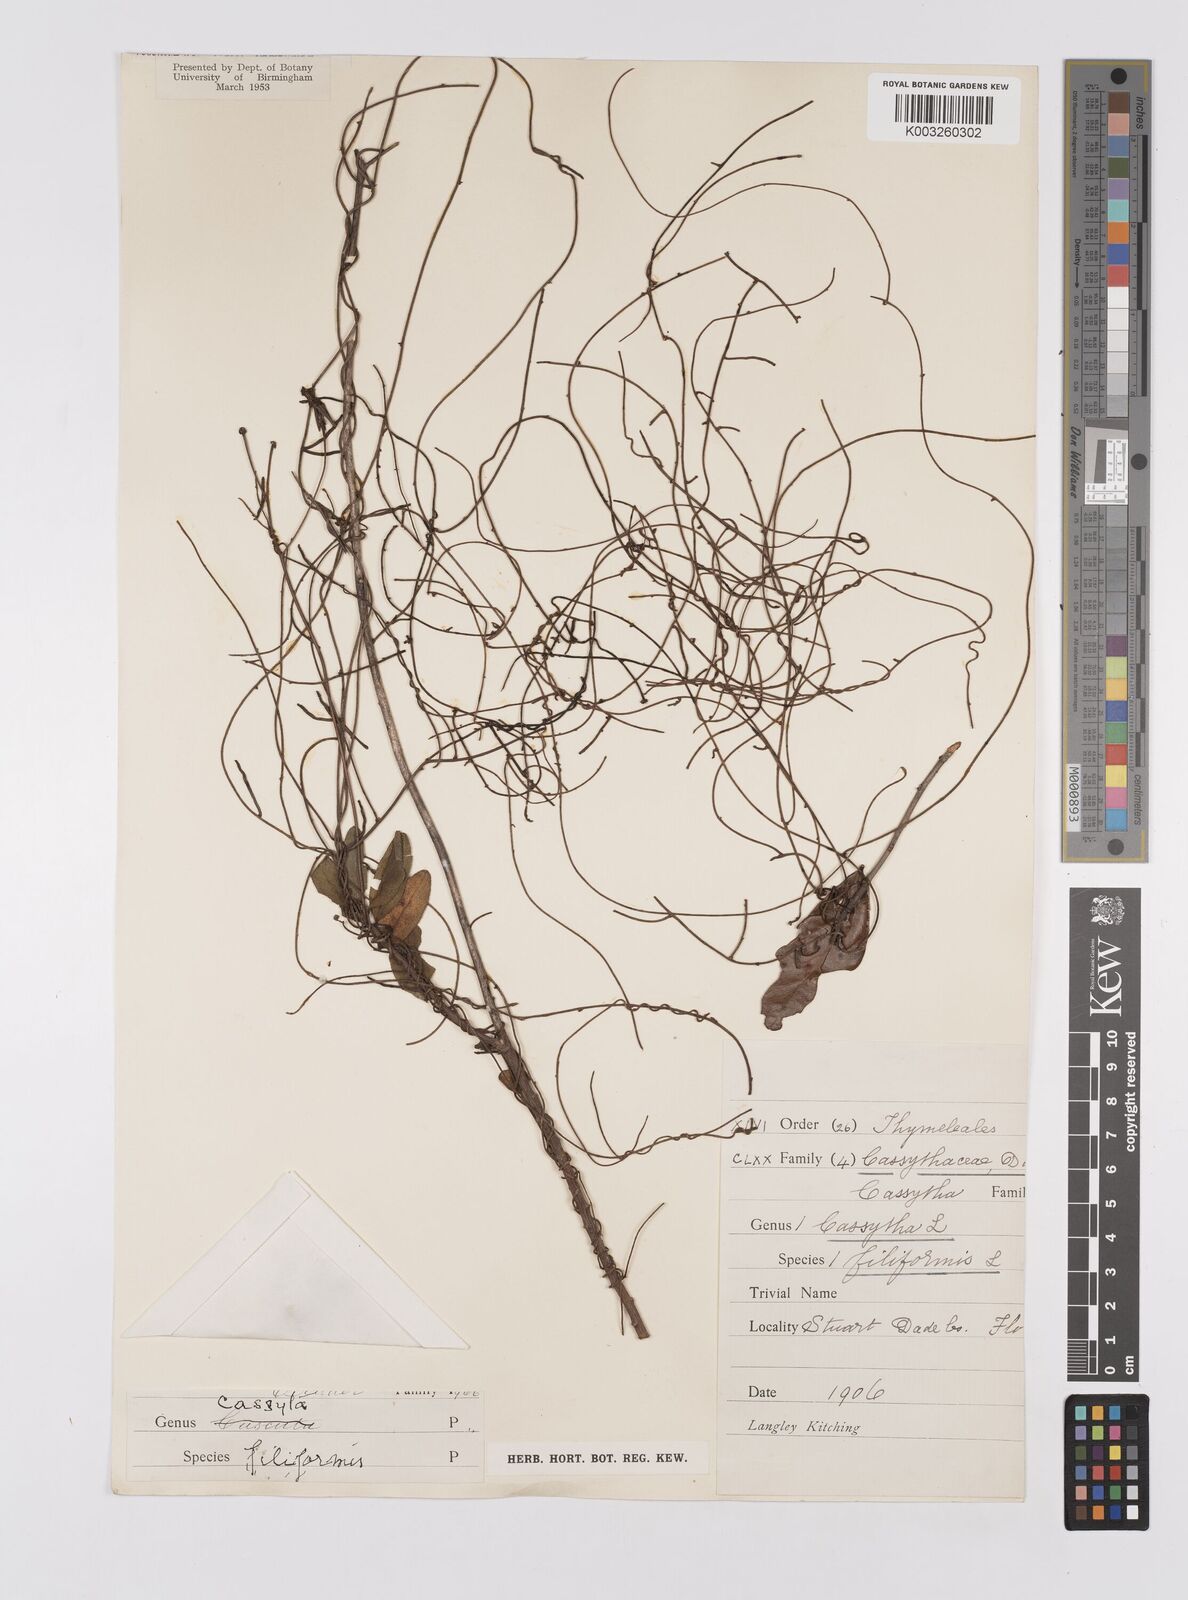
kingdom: Plantae
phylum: Tracheophyta
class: Magnoliopsida
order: Laurales
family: Lauraceae
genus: Cassytha
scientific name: Cassytha filiformis
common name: Dodder-laurel
